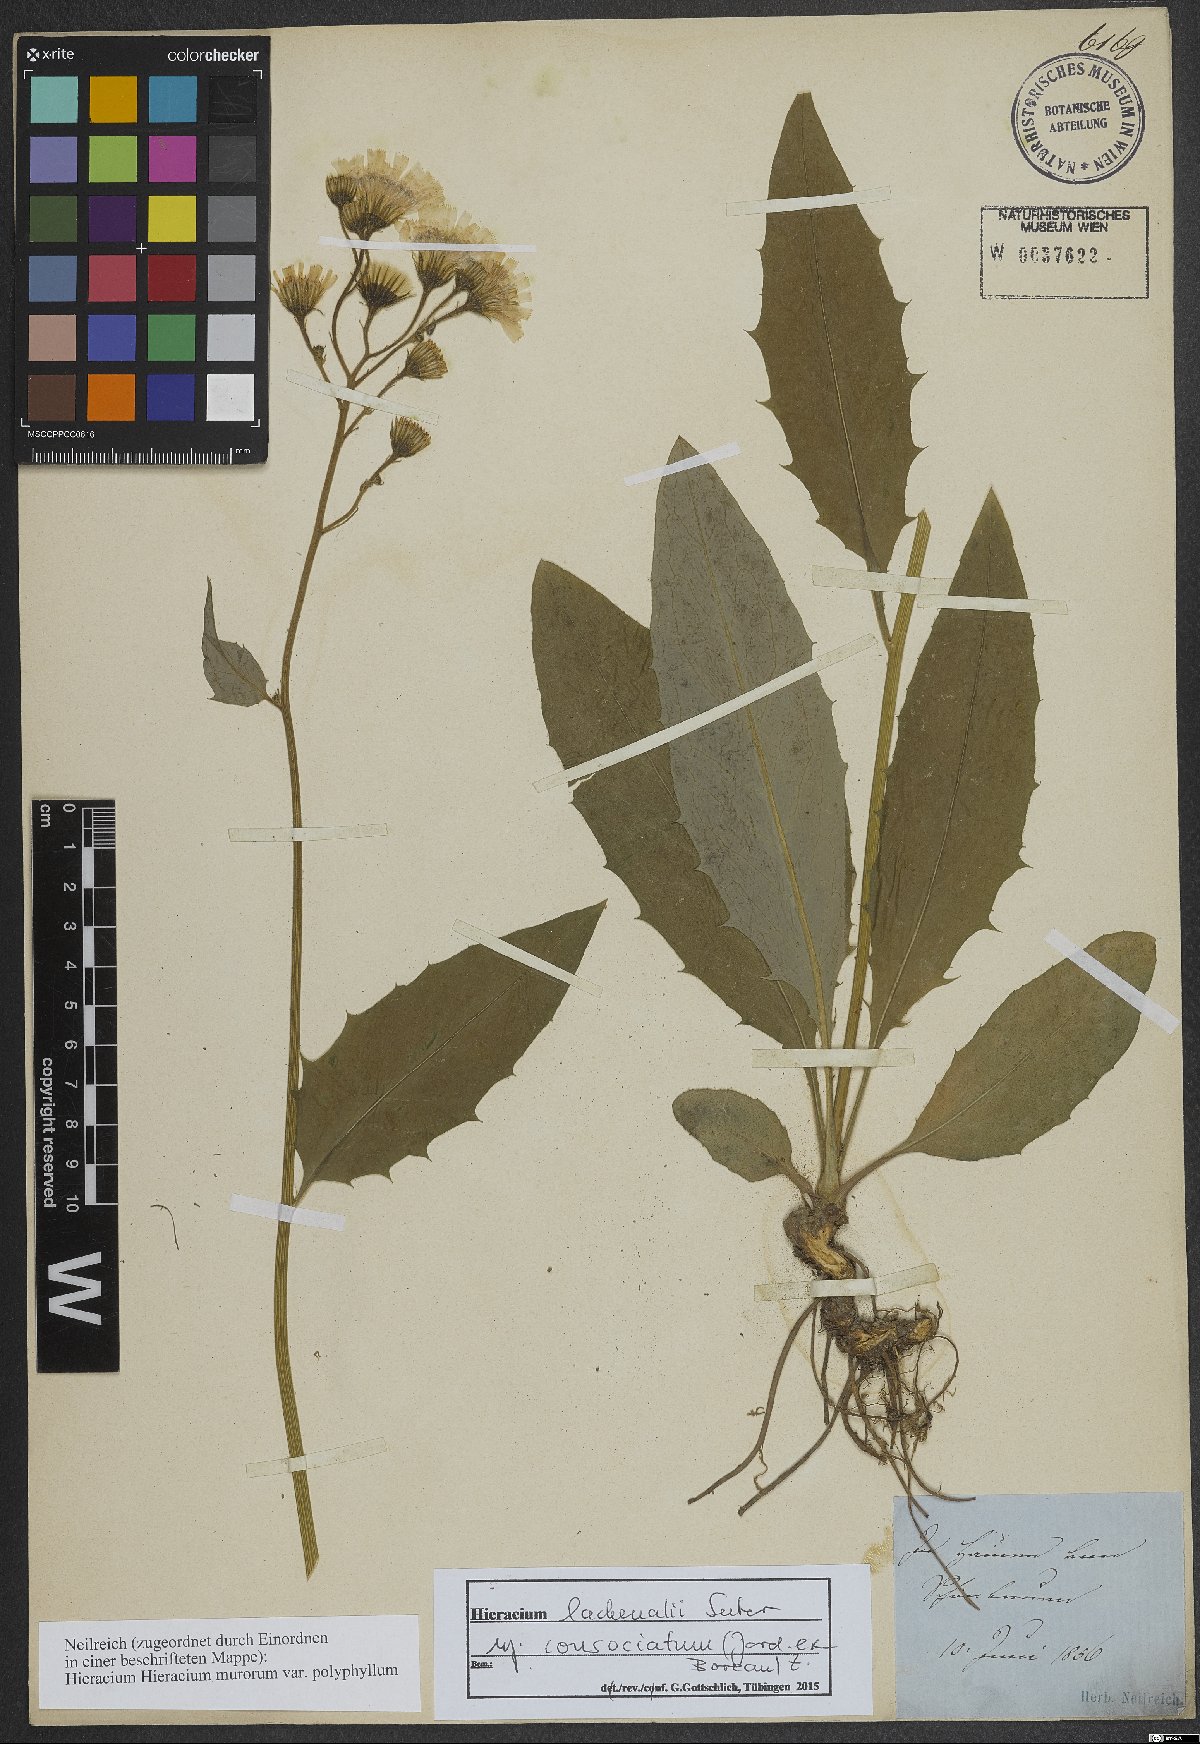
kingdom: Plantae
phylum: Tracheophyta
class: Magnoliopsida
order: Asterales
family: Asteraceae
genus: Hieracium
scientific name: Hieracium lachenalii
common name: Common hawkweed
